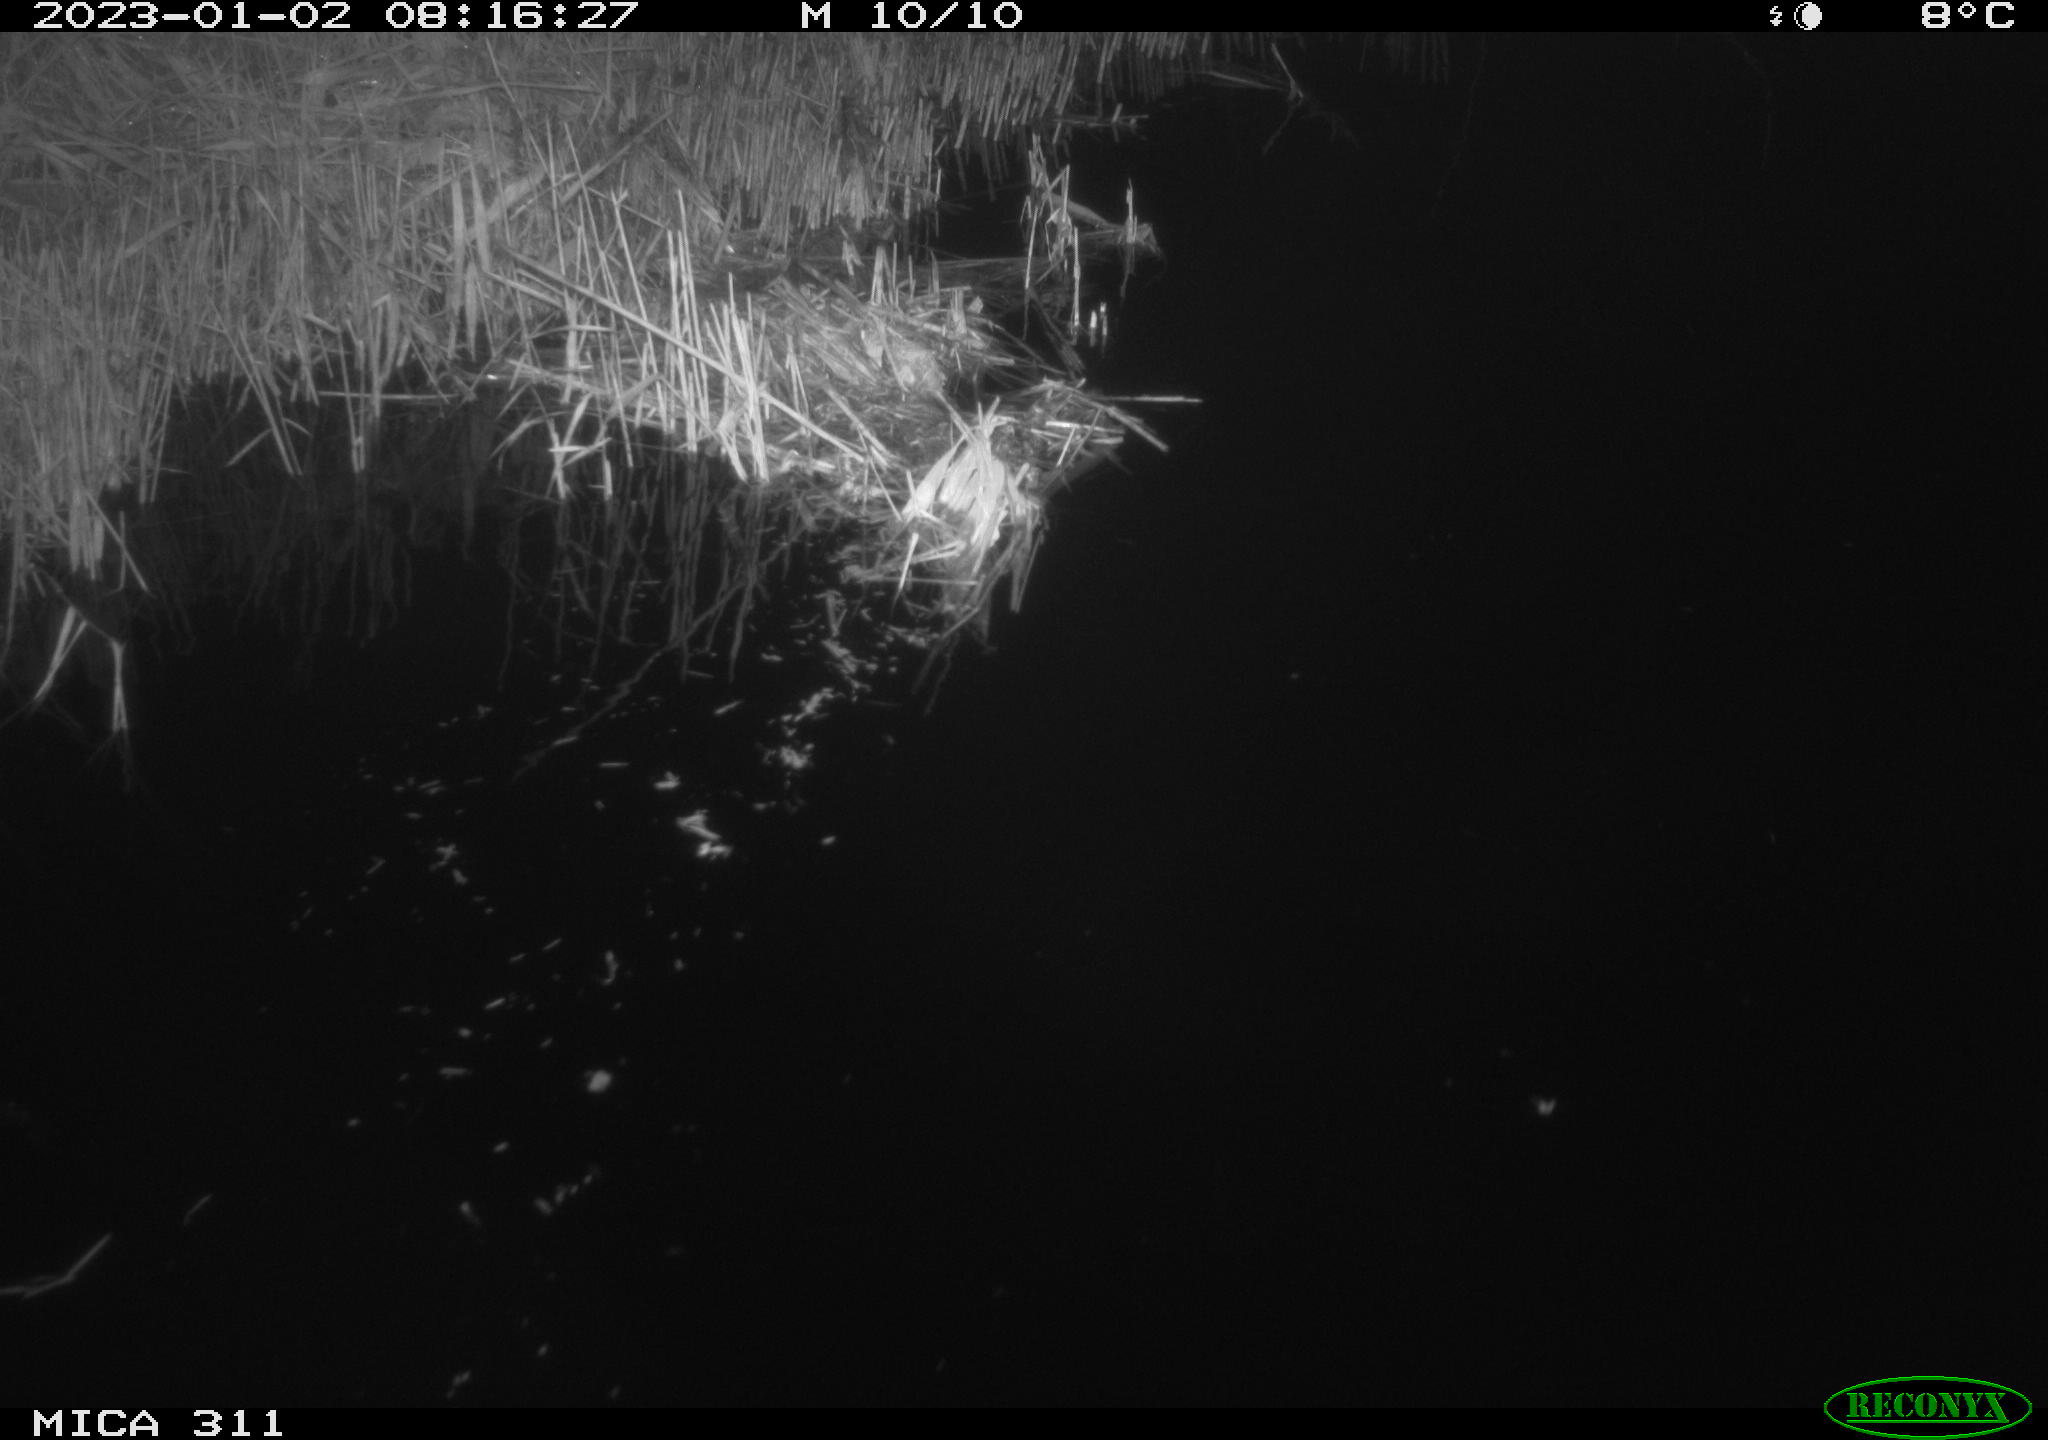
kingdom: Animalia
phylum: Chordata
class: Aves
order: Gruiformes
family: Rallidae
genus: Gallinula
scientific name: Gallinula chloropus
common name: Common moorhen
